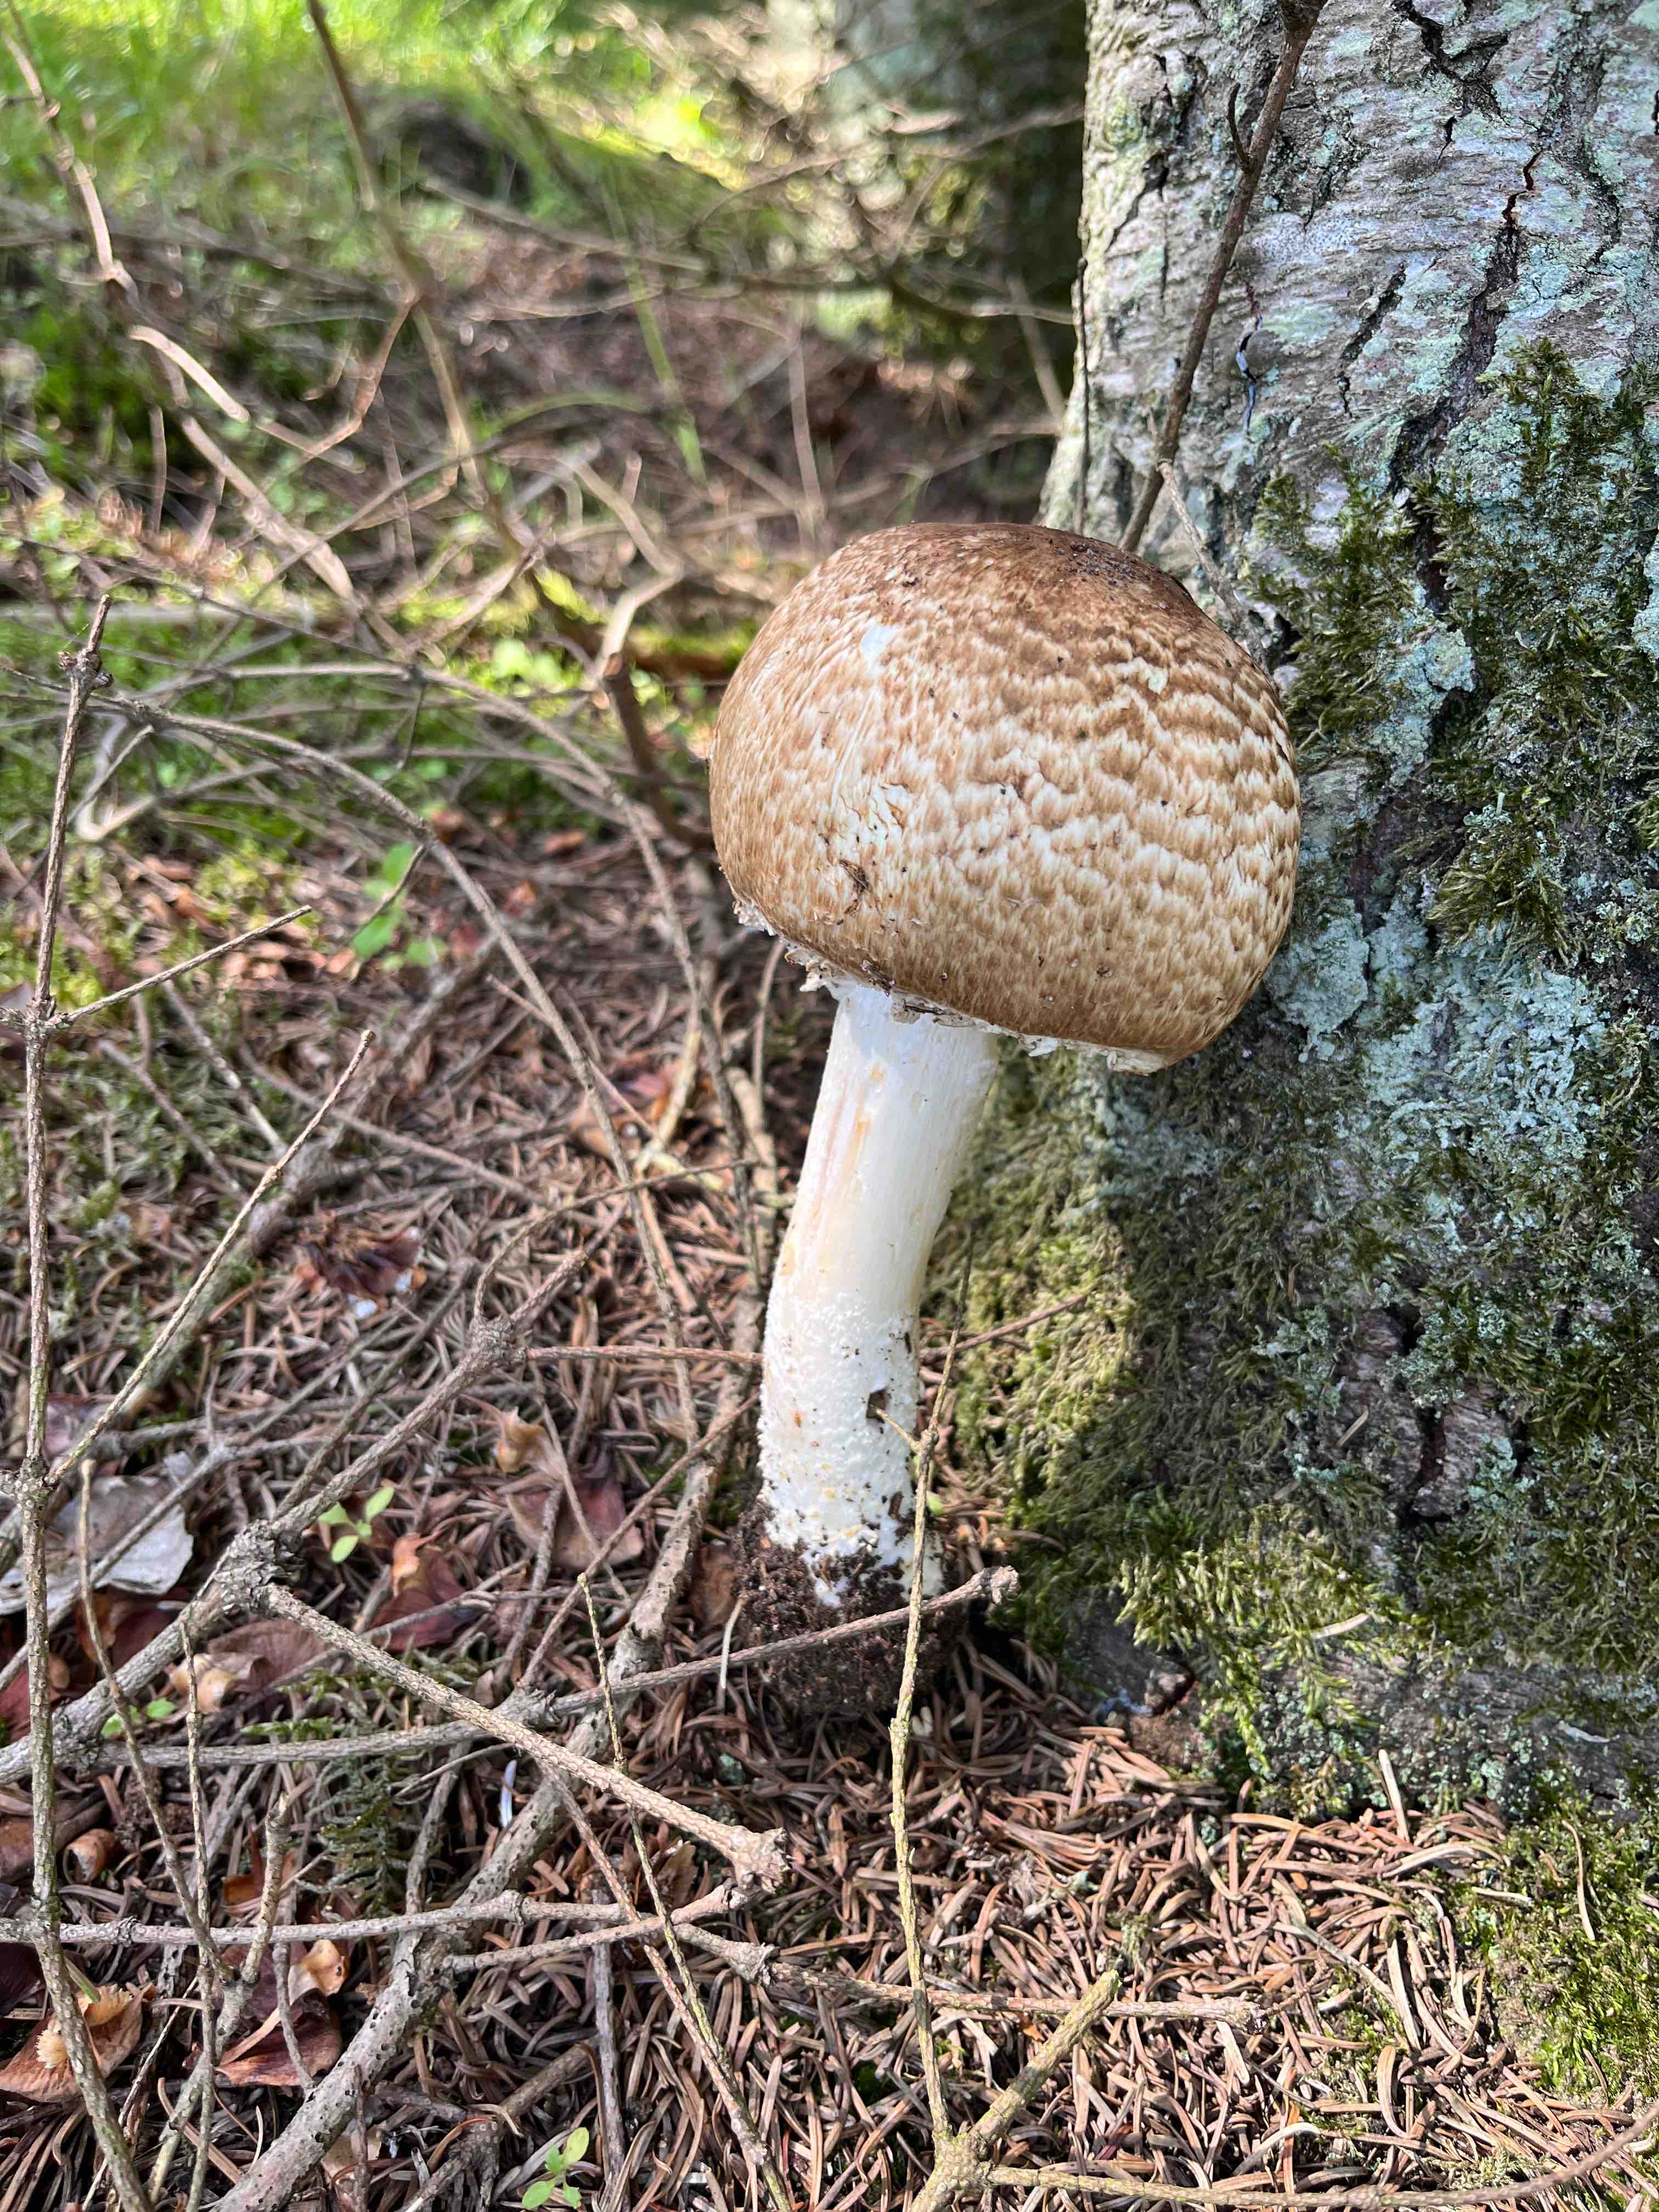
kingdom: Fungi
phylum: Basidiomycota
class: Agaricomycetes
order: Agaricales
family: Agaricaceae
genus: Agaricus
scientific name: Agaricus augustus
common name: prægtig champignon
